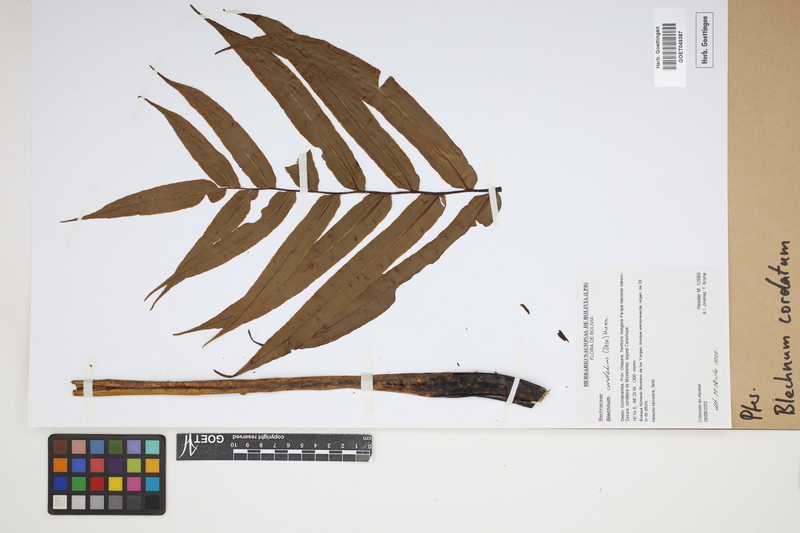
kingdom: Plantae
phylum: Tracheophyta
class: Polypodiopsida
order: Polypodiales
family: Blechnaceae
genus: Parablechnum
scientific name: Parablechnum cordatum
